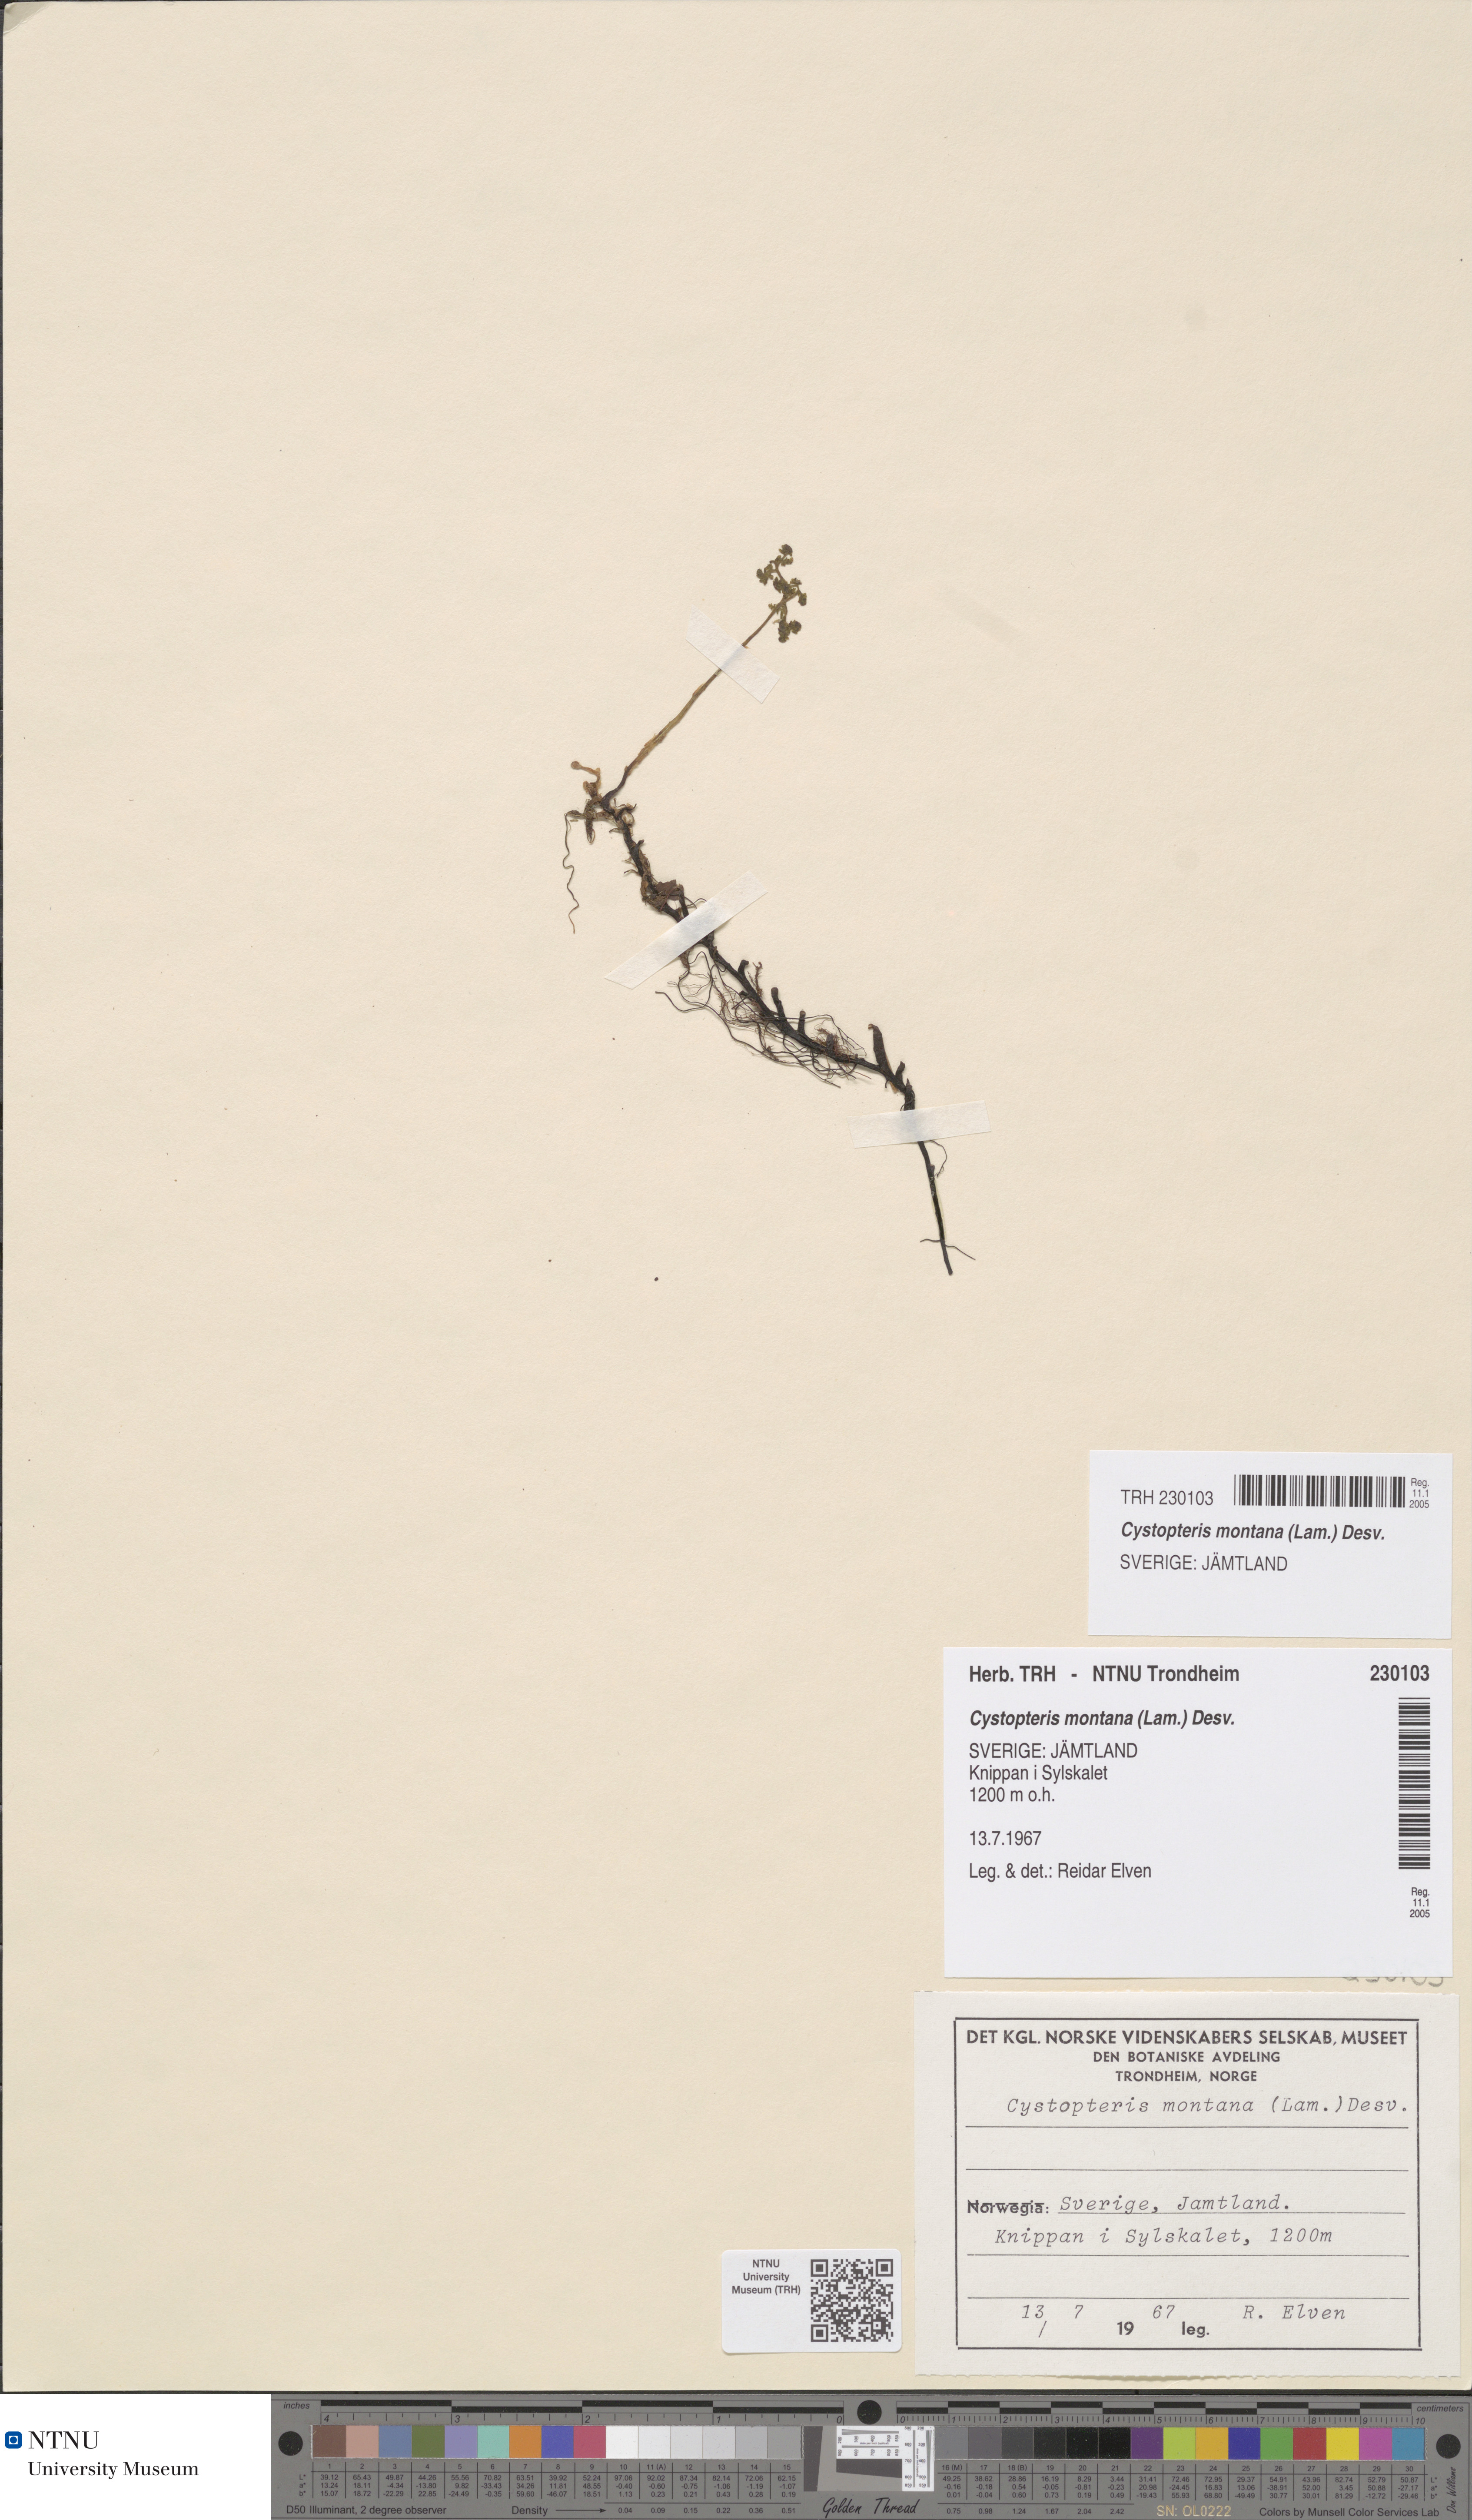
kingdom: Plantae
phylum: Tracheophyta
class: Polypodiopsida
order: Polypodiales
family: Cystopteridaceae
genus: Cystopteris
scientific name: Cystopteris montana
